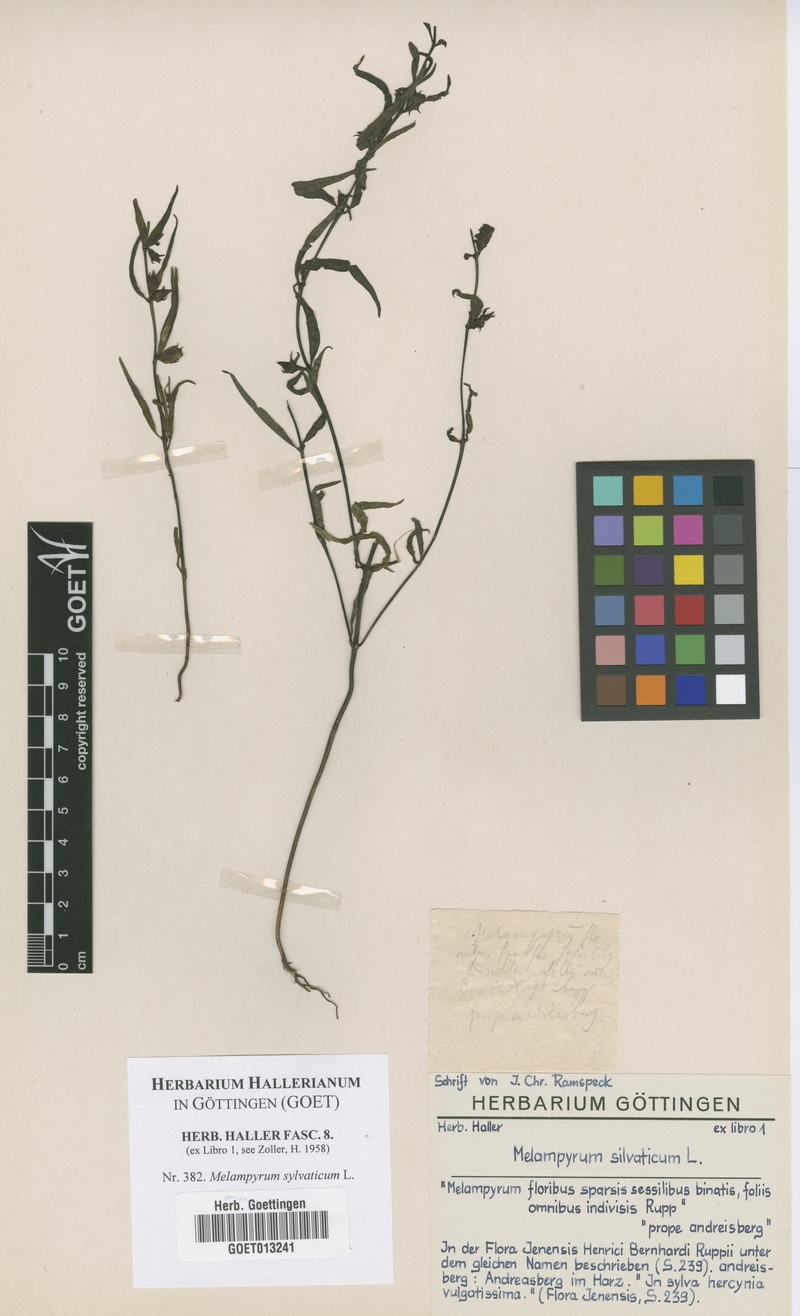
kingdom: Plantae
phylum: Tracheophyta
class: Magnoliopsida
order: Lamiales
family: Orobanchaceae
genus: Melampyrum
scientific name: Melampyrum sylvaticum
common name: Small cow-wheat
